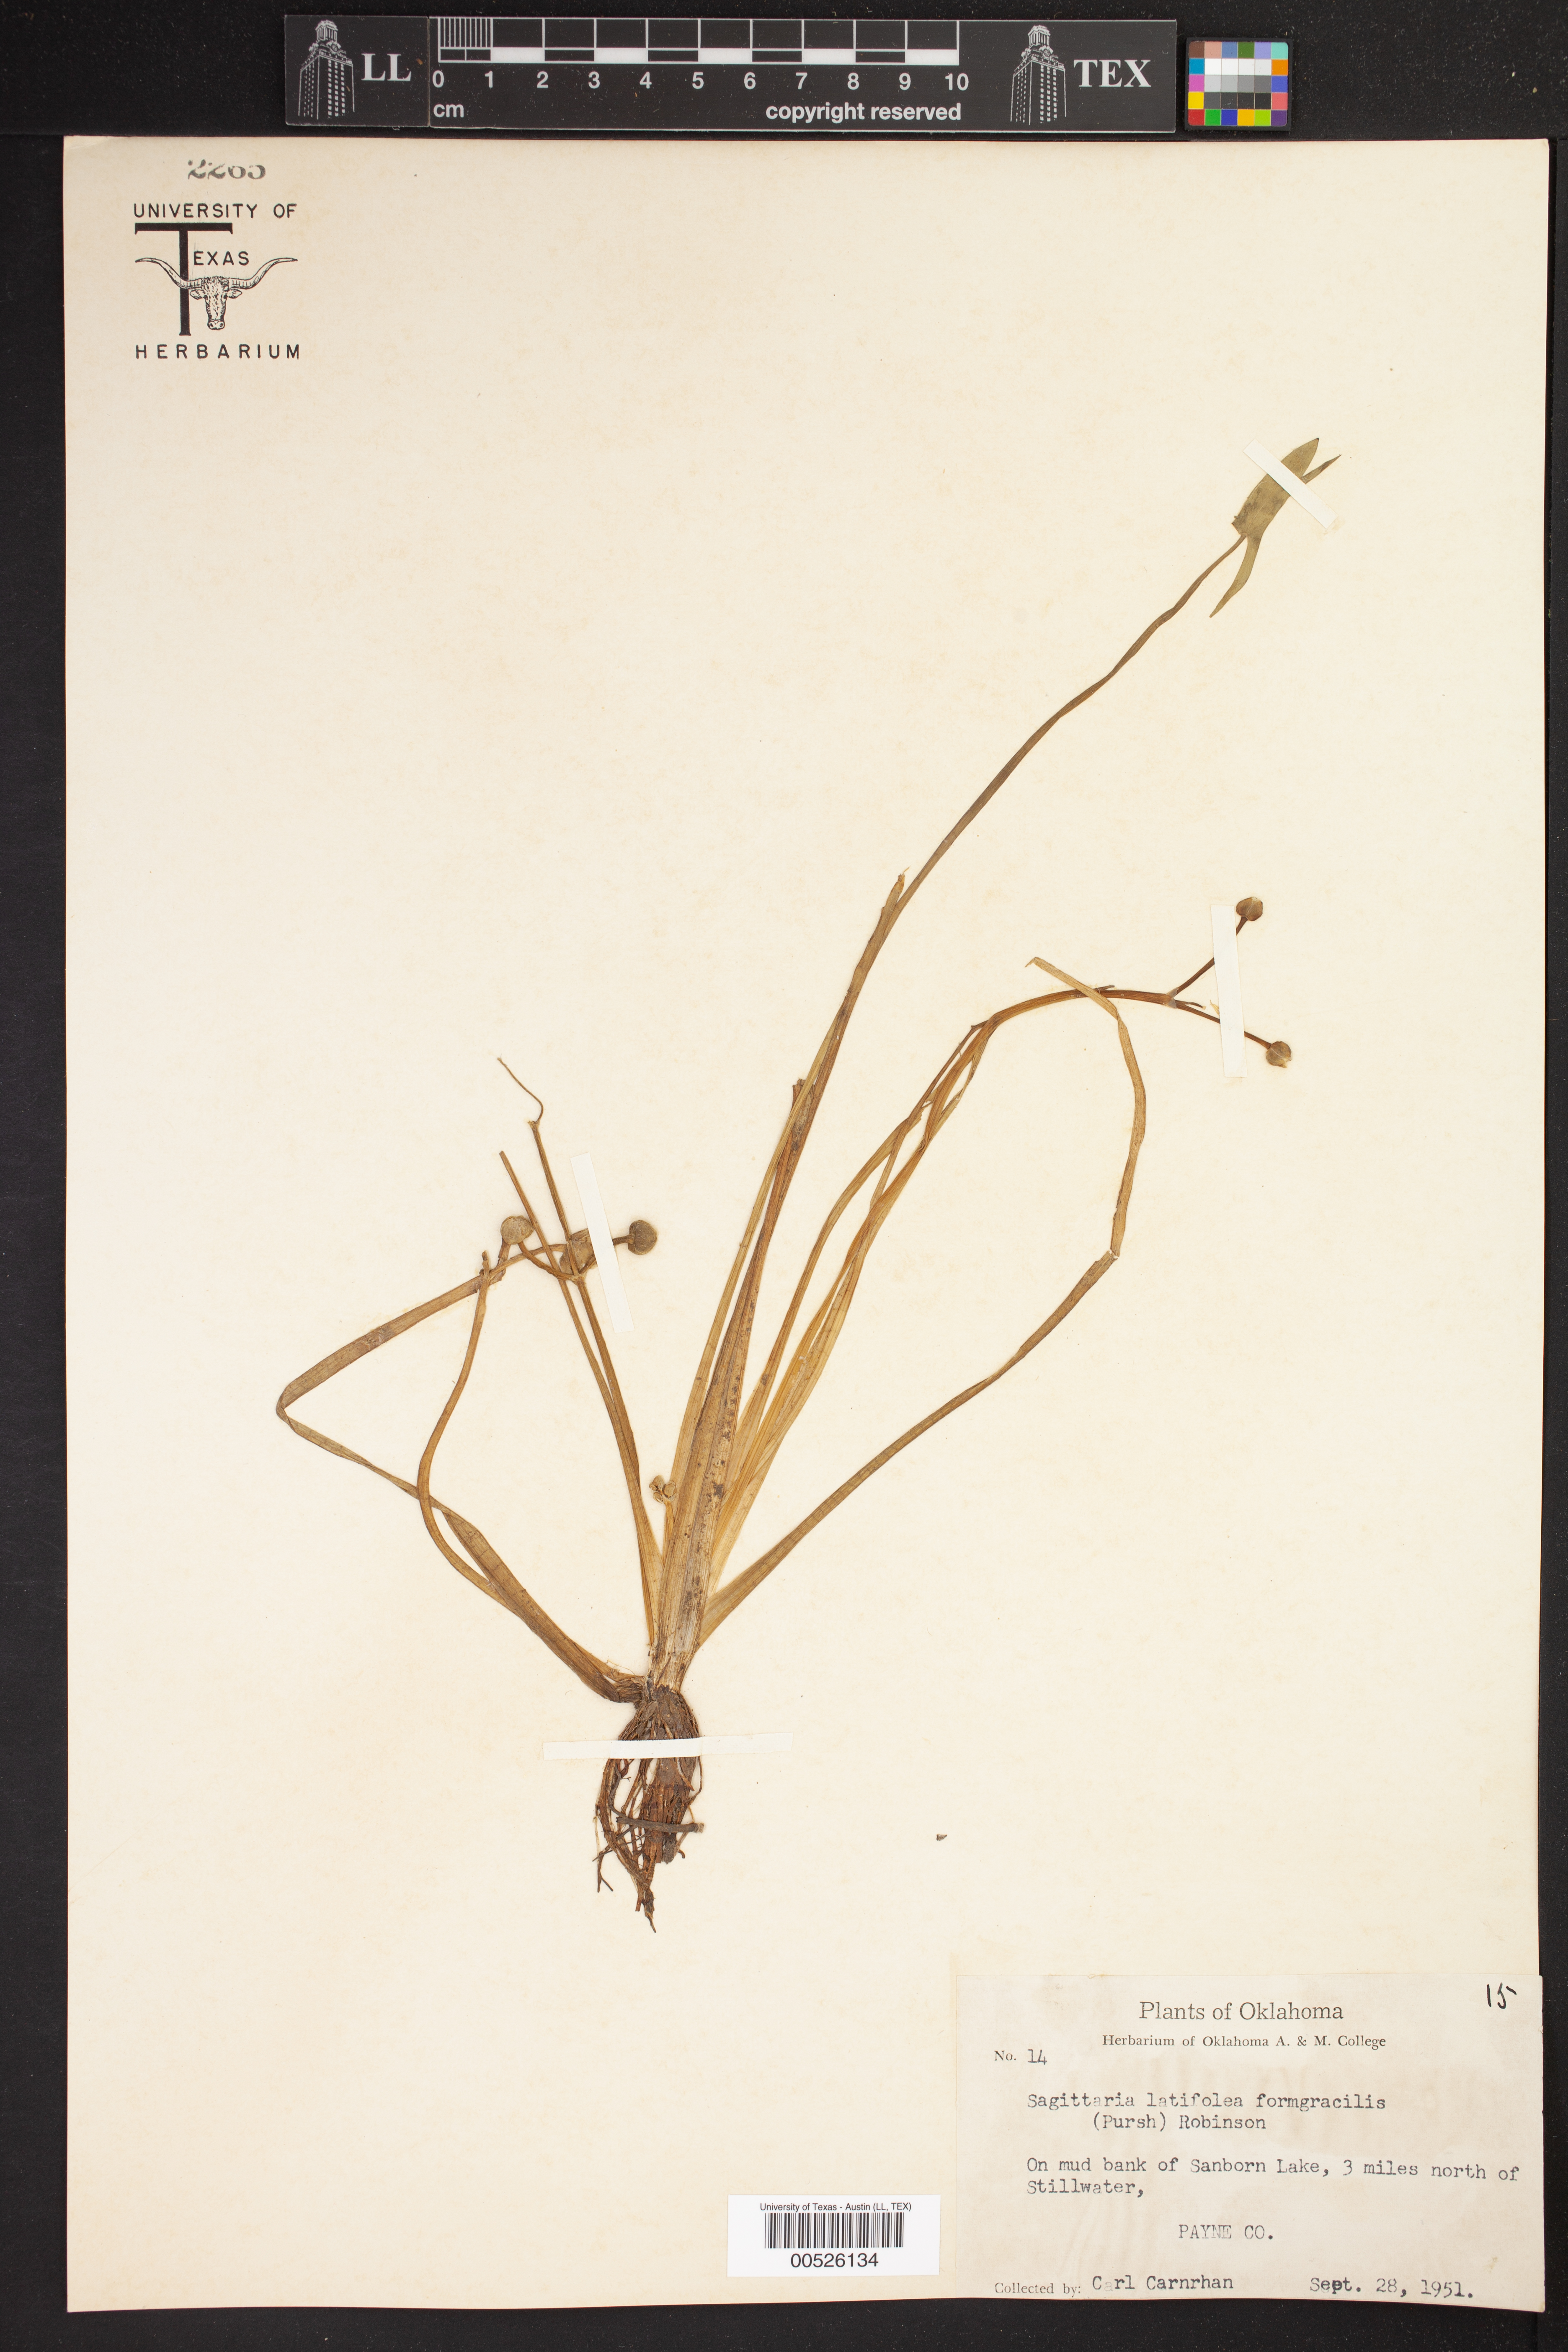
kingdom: Plantae
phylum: Tracheophyta
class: Liliopsida
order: Alismatales
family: Alismataceae
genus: Sagittaria
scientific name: Sagittaria latifolia
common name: Duck-potato
